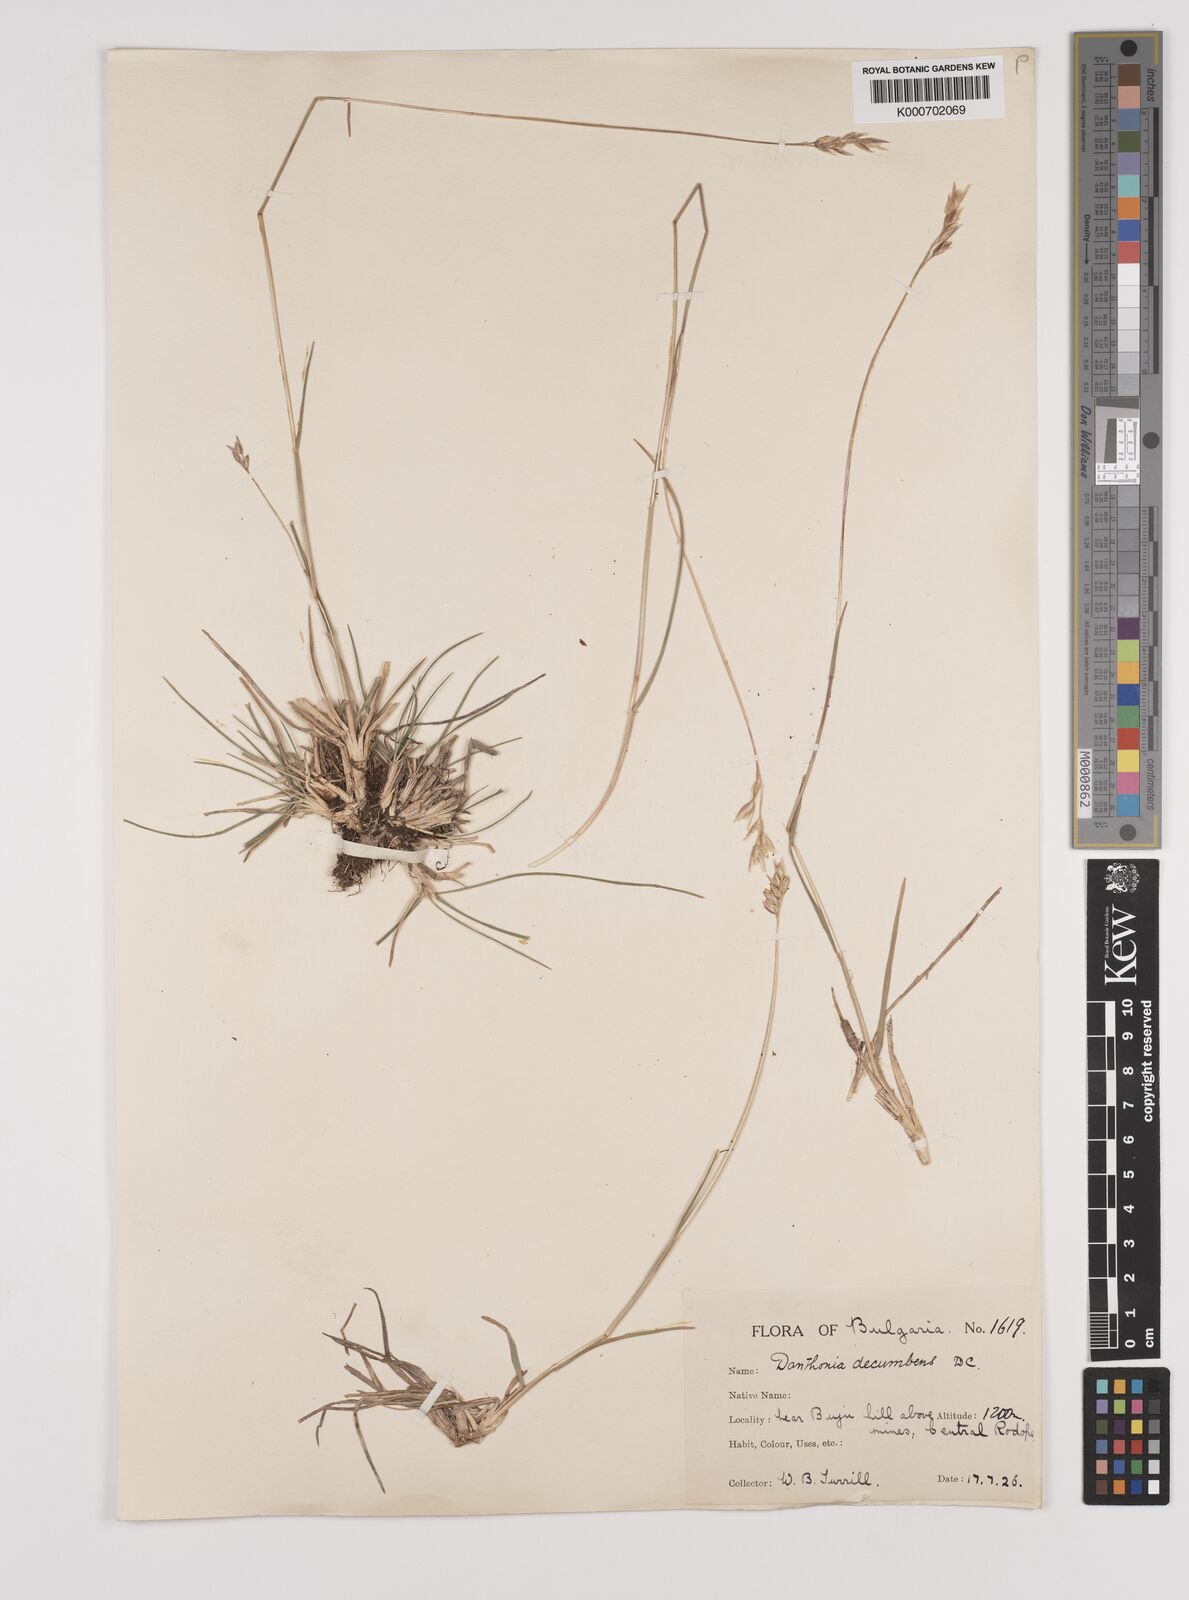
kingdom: Plantae
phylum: Tracheophyta
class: Liliopsida
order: Poales
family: Poaceae
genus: Danthonia
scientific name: Danthonia decumbens
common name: Common heathgrass
